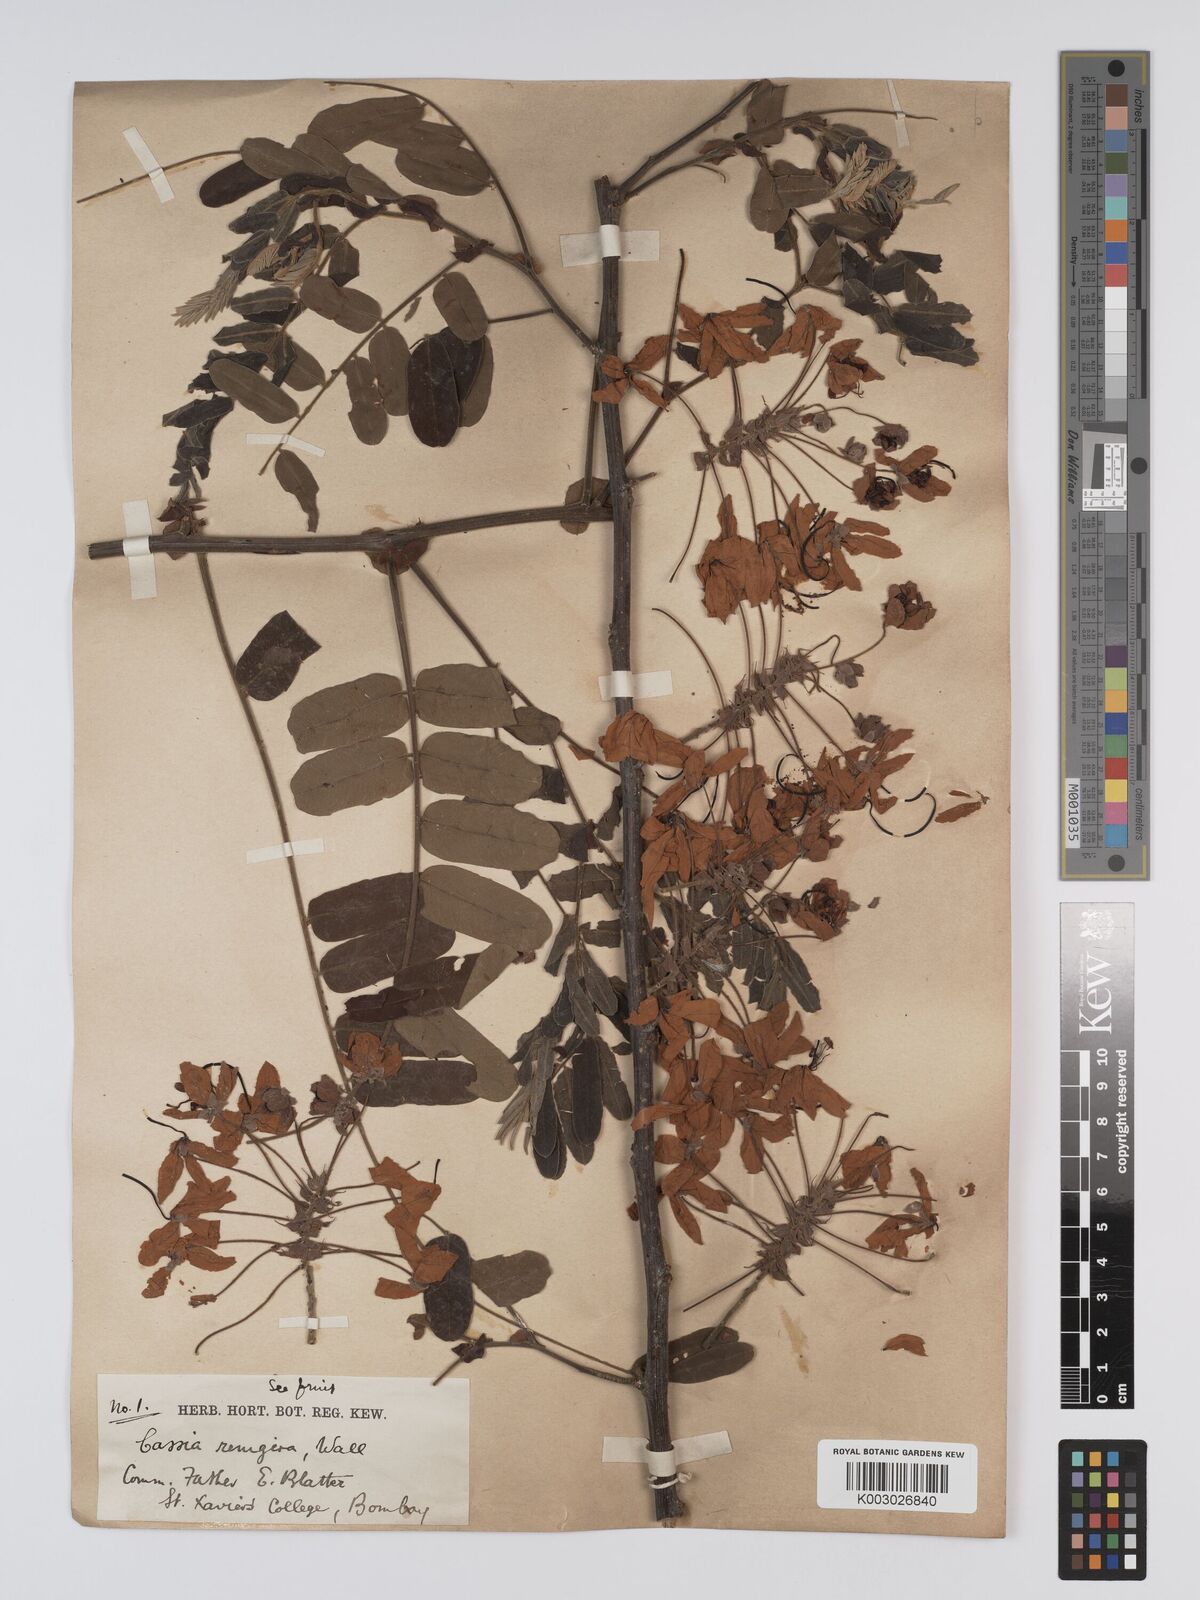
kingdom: Plantae
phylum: Tracheophyta
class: Magnoliopsida
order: Fabales
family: Fabaceae
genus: Cassia
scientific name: Cassia
